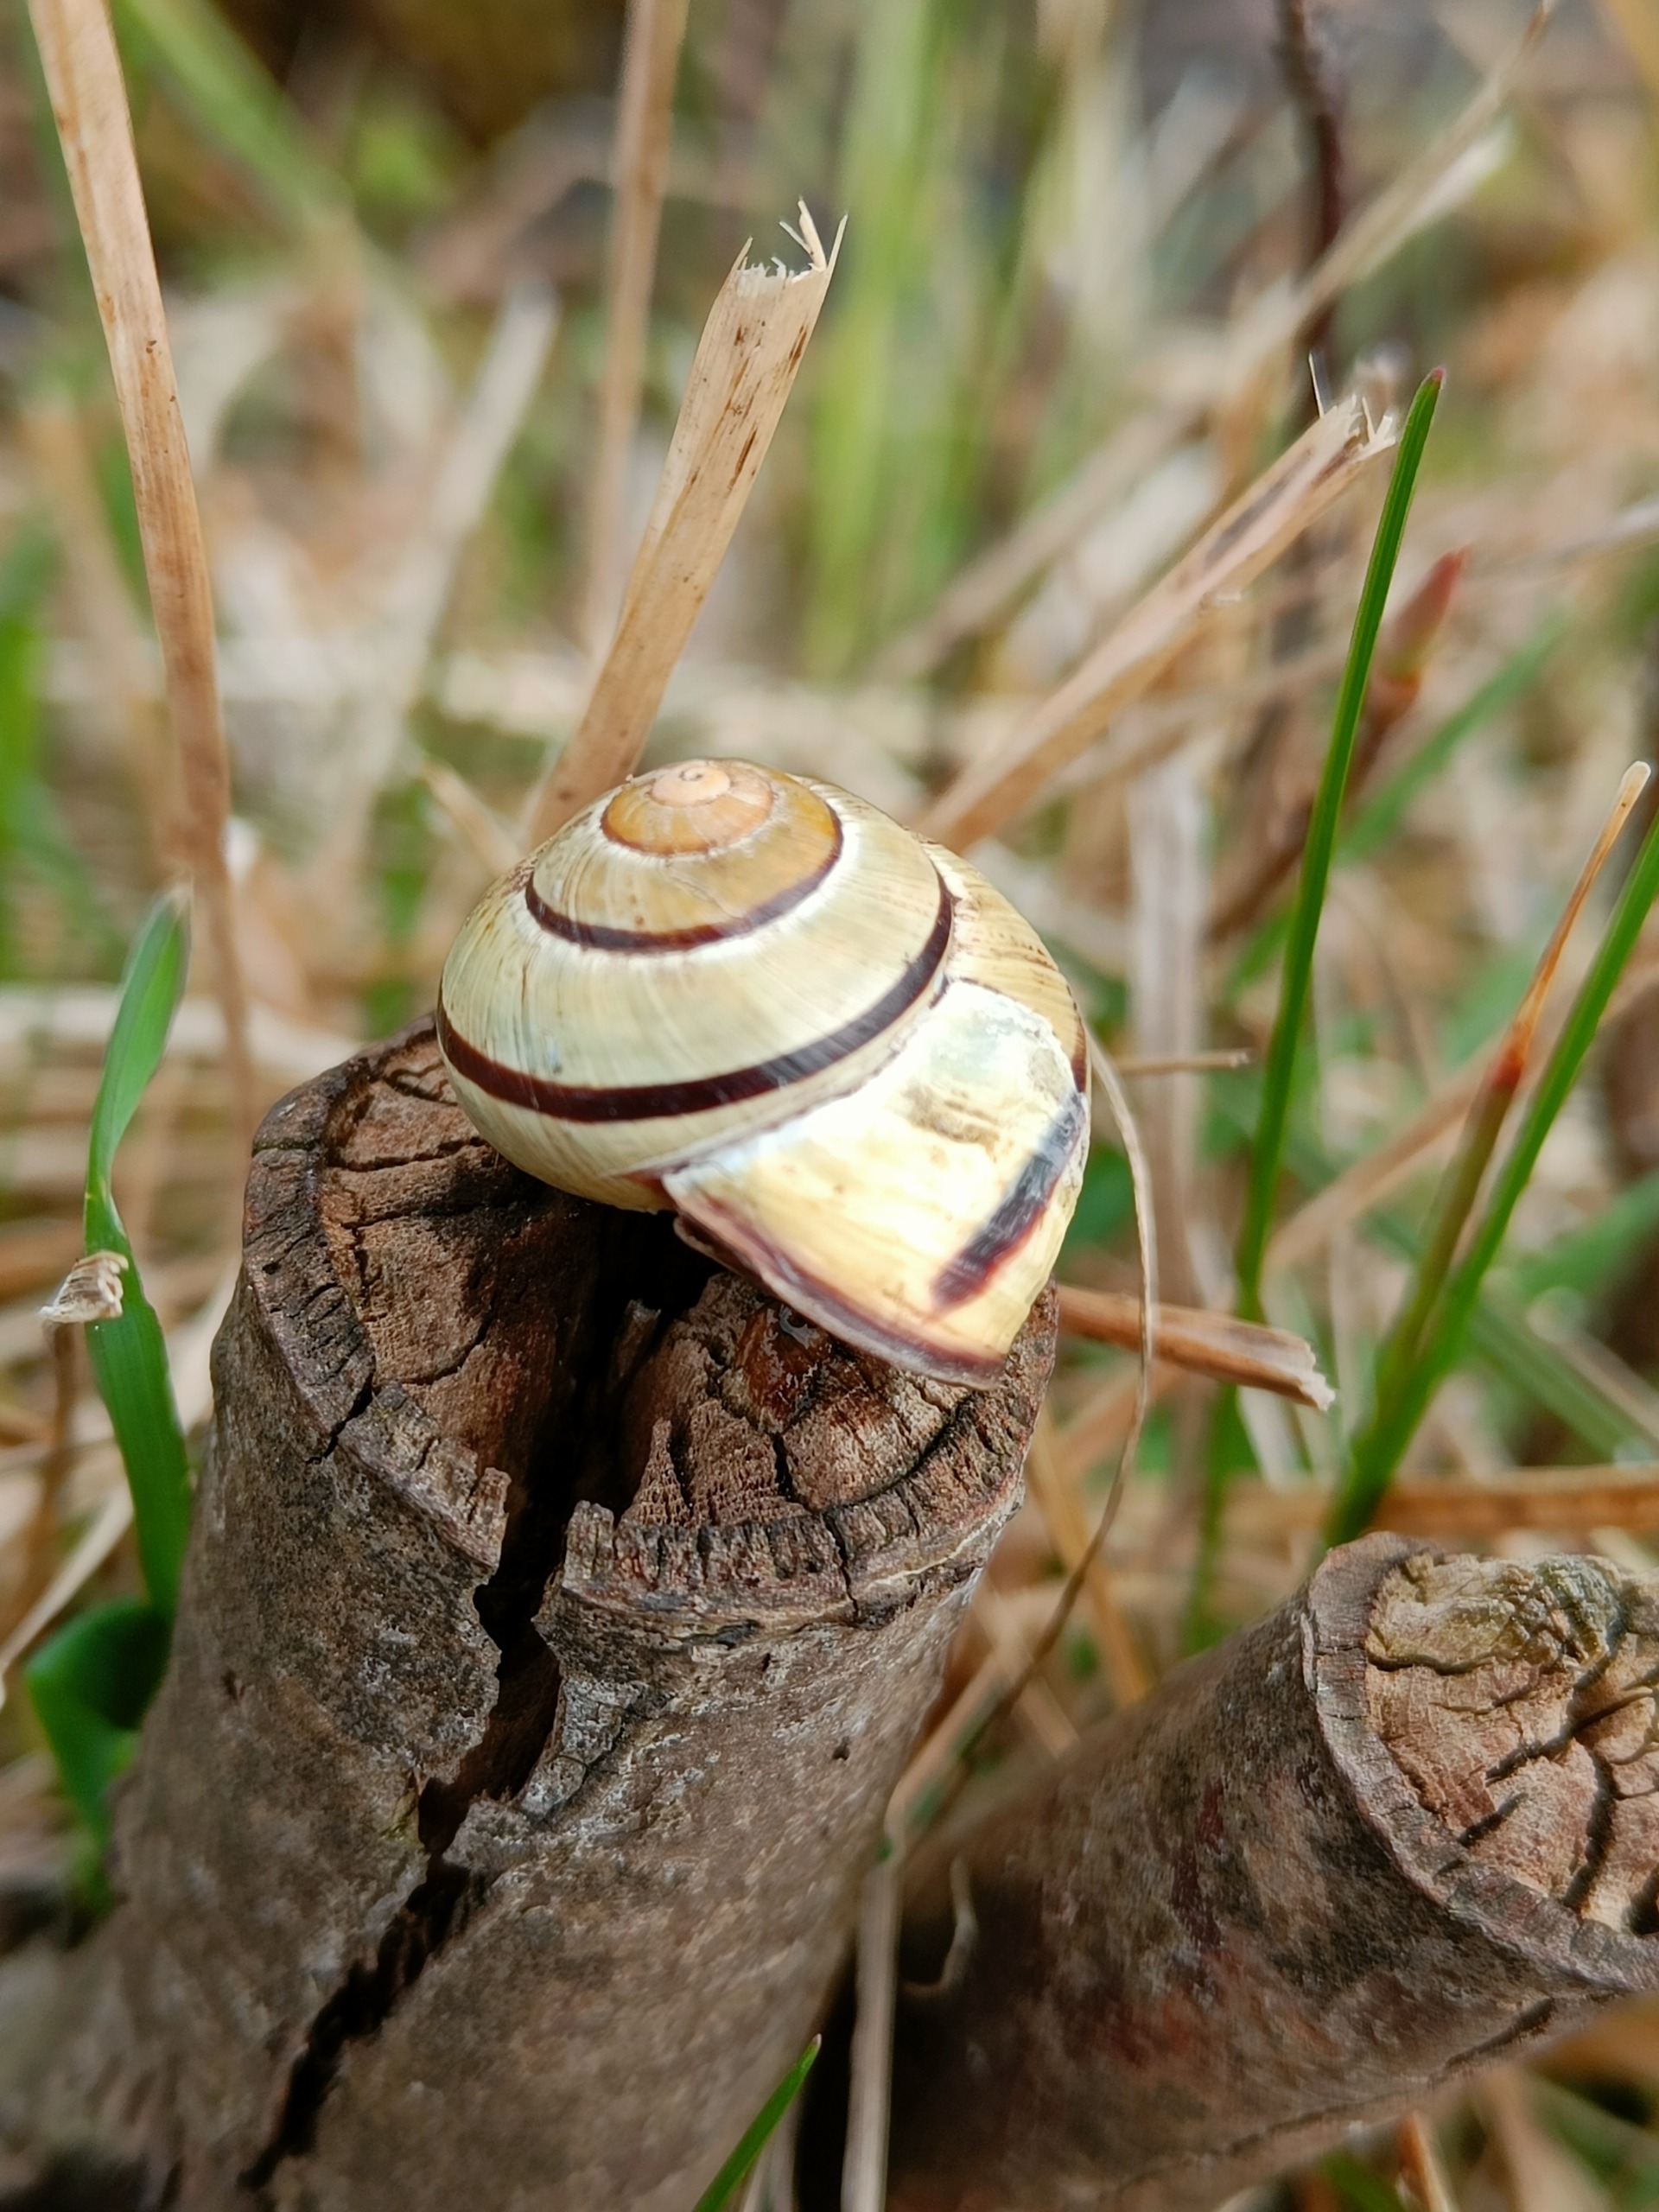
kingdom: Animalia
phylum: Mollusca
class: Gastropoda
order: Stylommatophora
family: Helicidae
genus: Cepaea
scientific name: Cepaea nemoralis
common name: Lundsnegl
